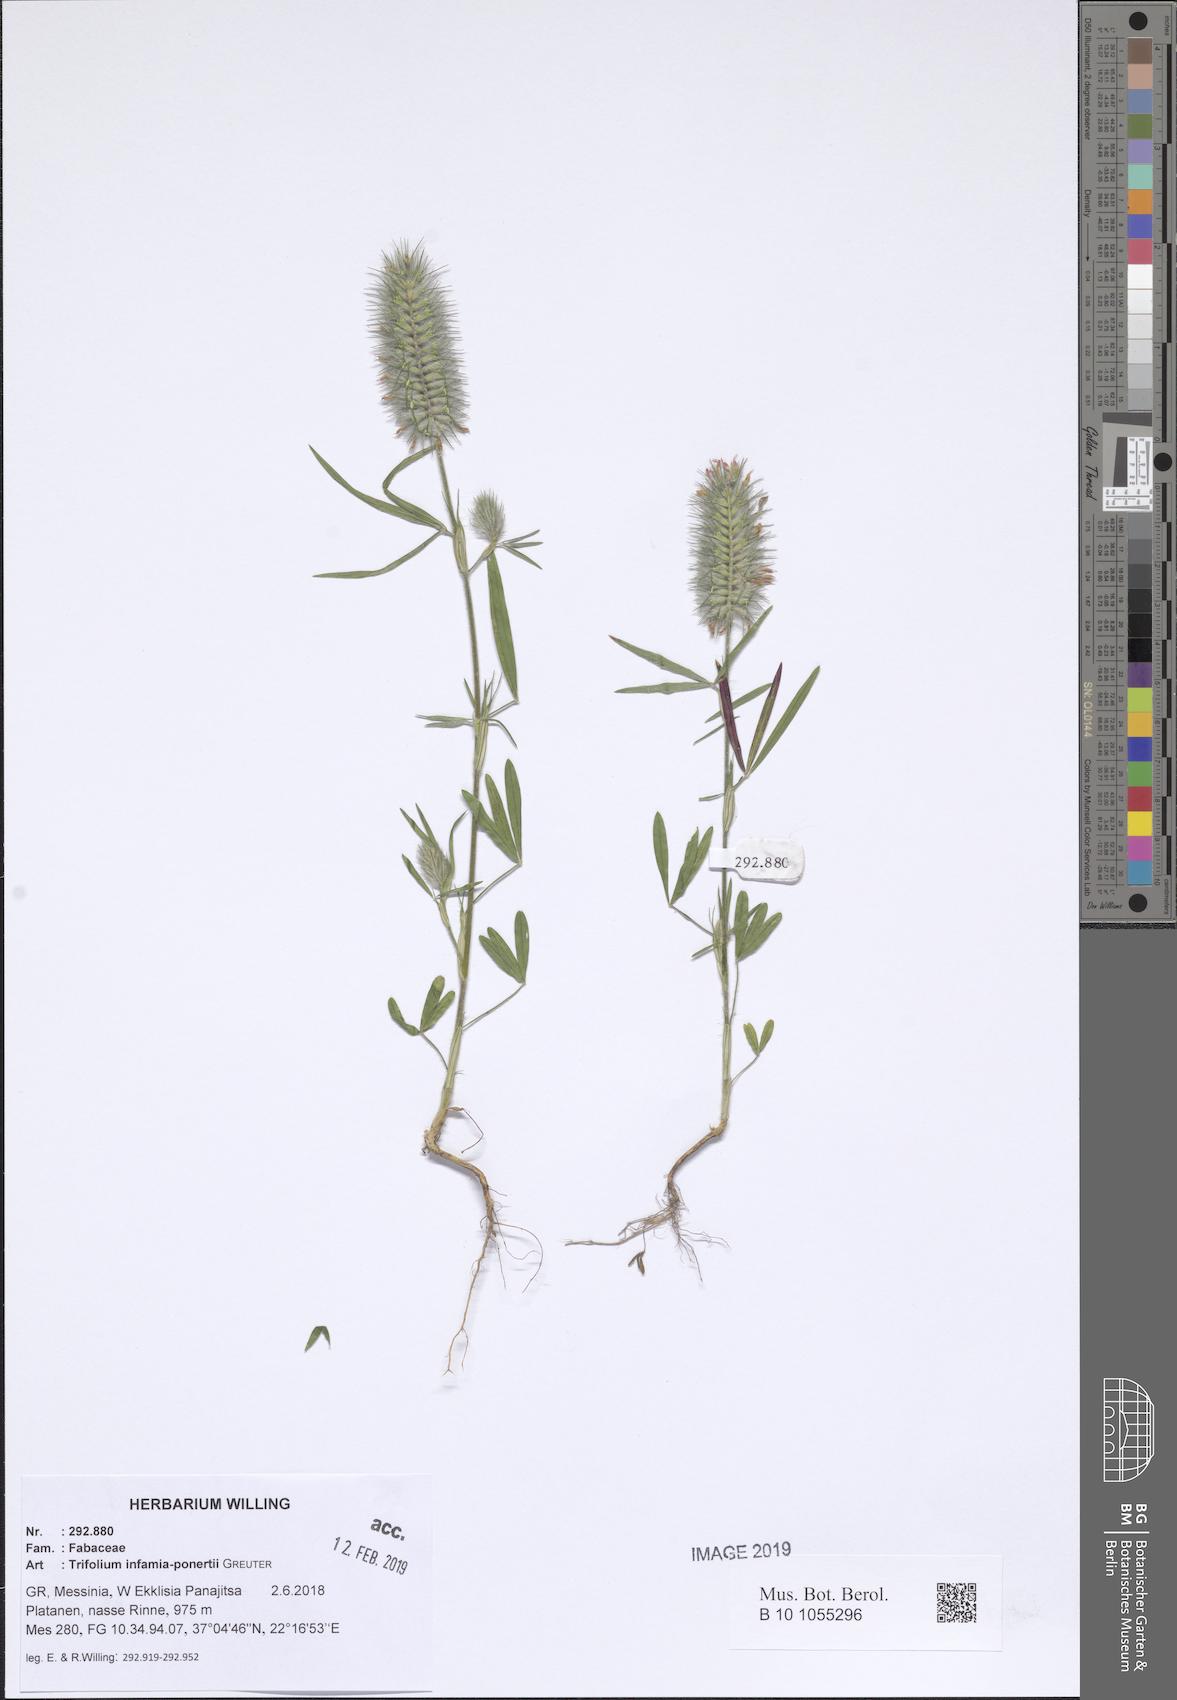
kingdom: Plantae
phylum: Tracheophyta
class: Magnoliopsida
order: Fabales
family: Fabaceae
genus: Trifolium
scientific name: Trifolium infamia-ponertii
